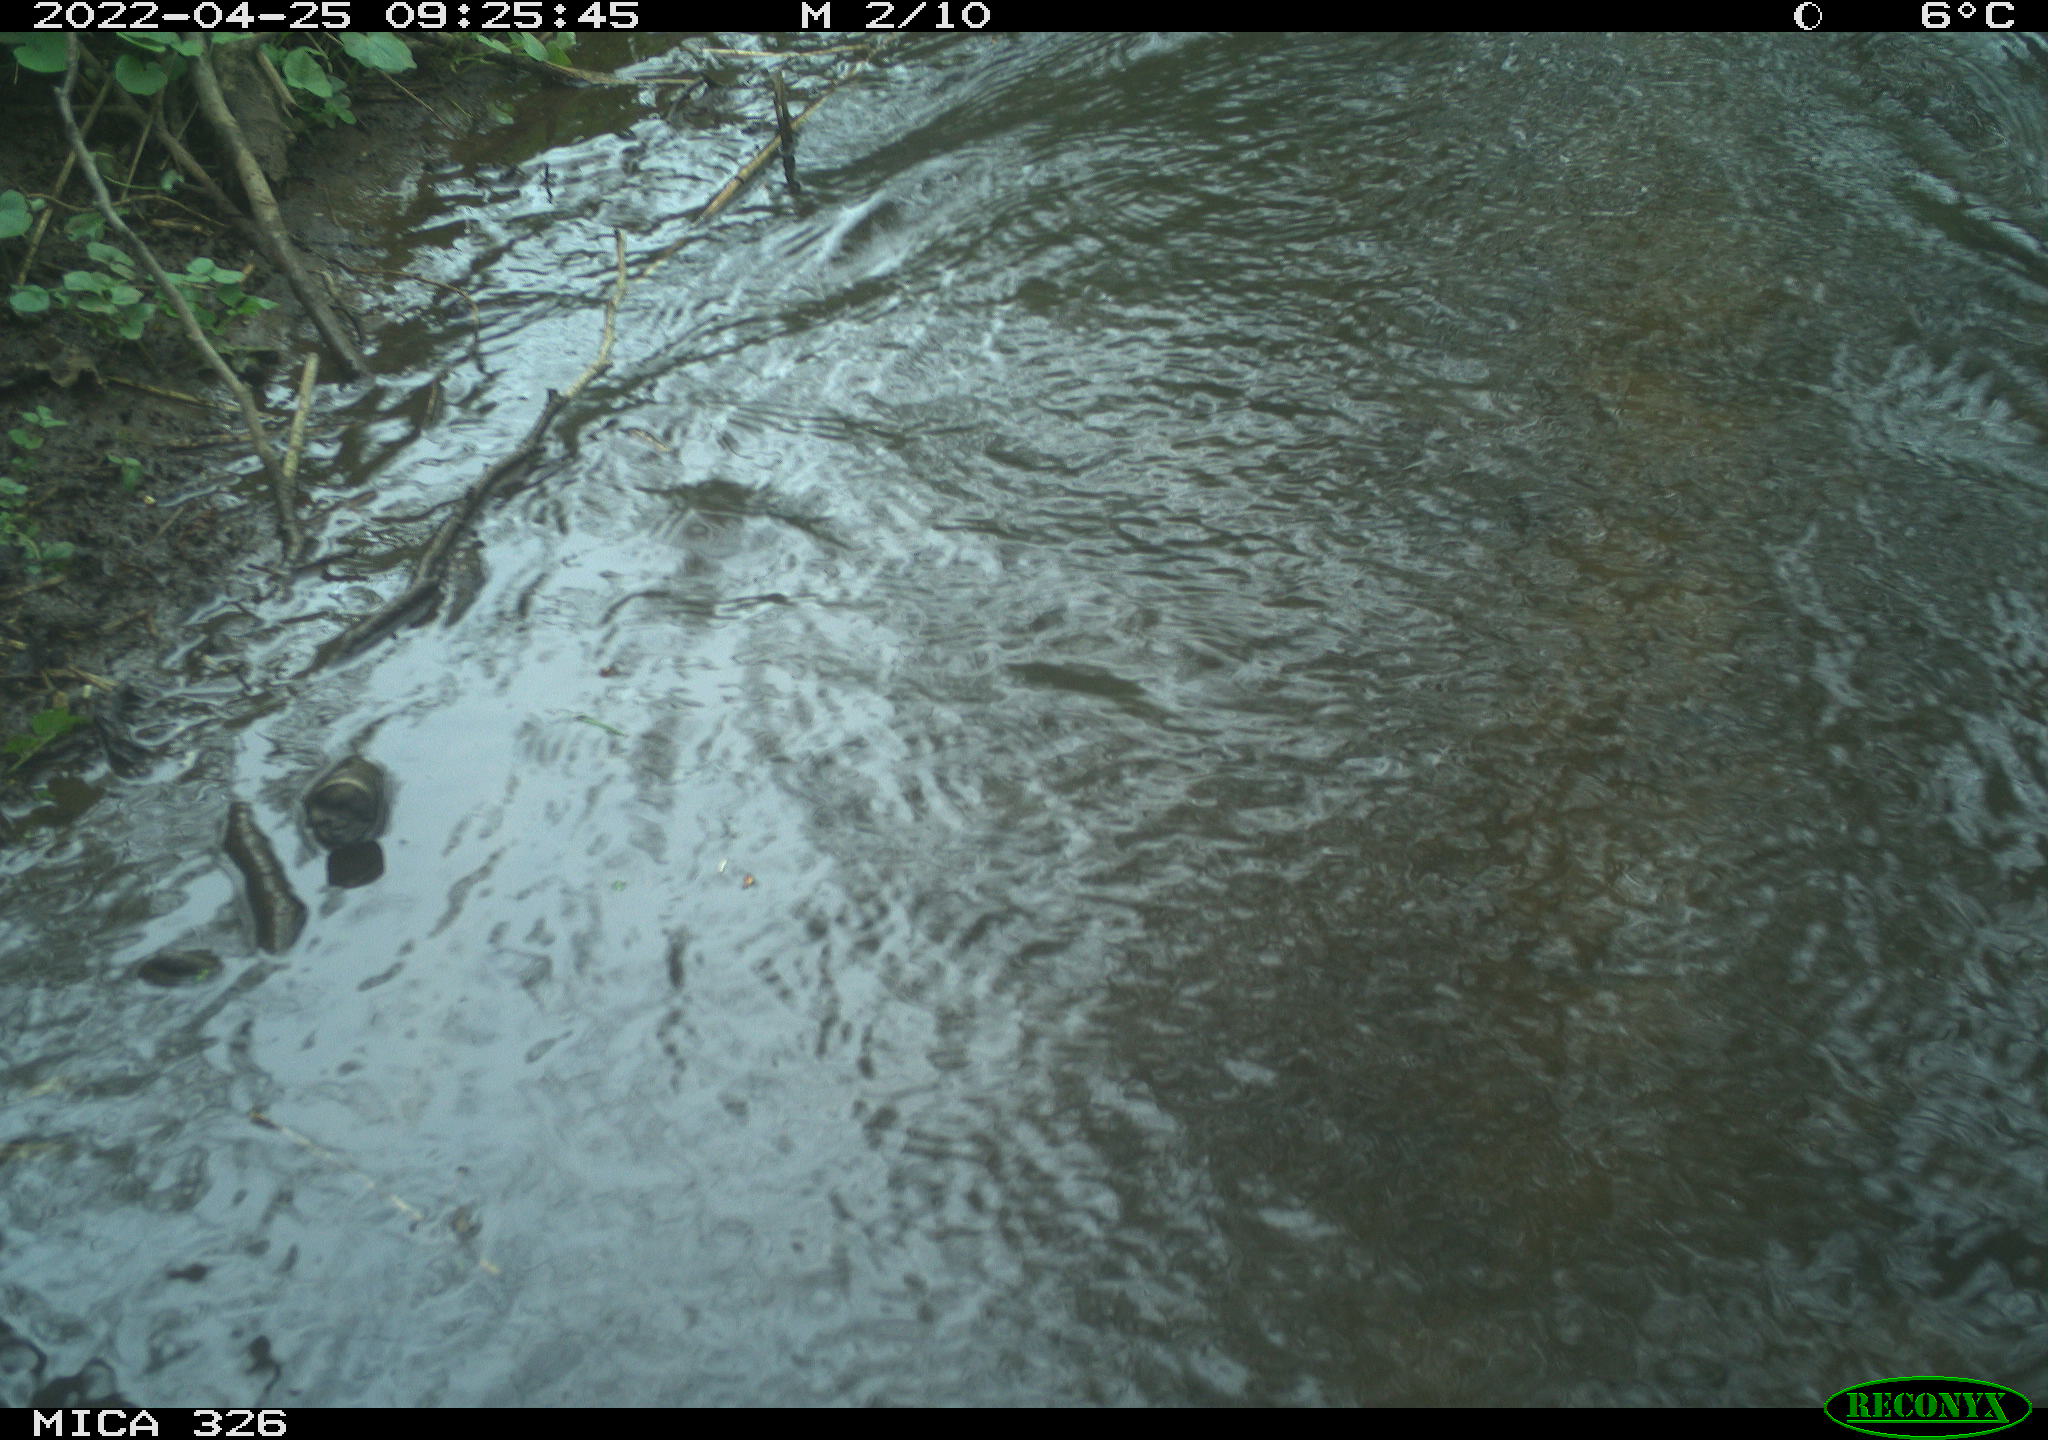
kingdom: Animalia
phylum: Chordata
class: Mammalia
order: Rodentia
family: Cricetidae
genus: Ondatra
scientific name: Ondatra zibethicus
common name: Muskrat
